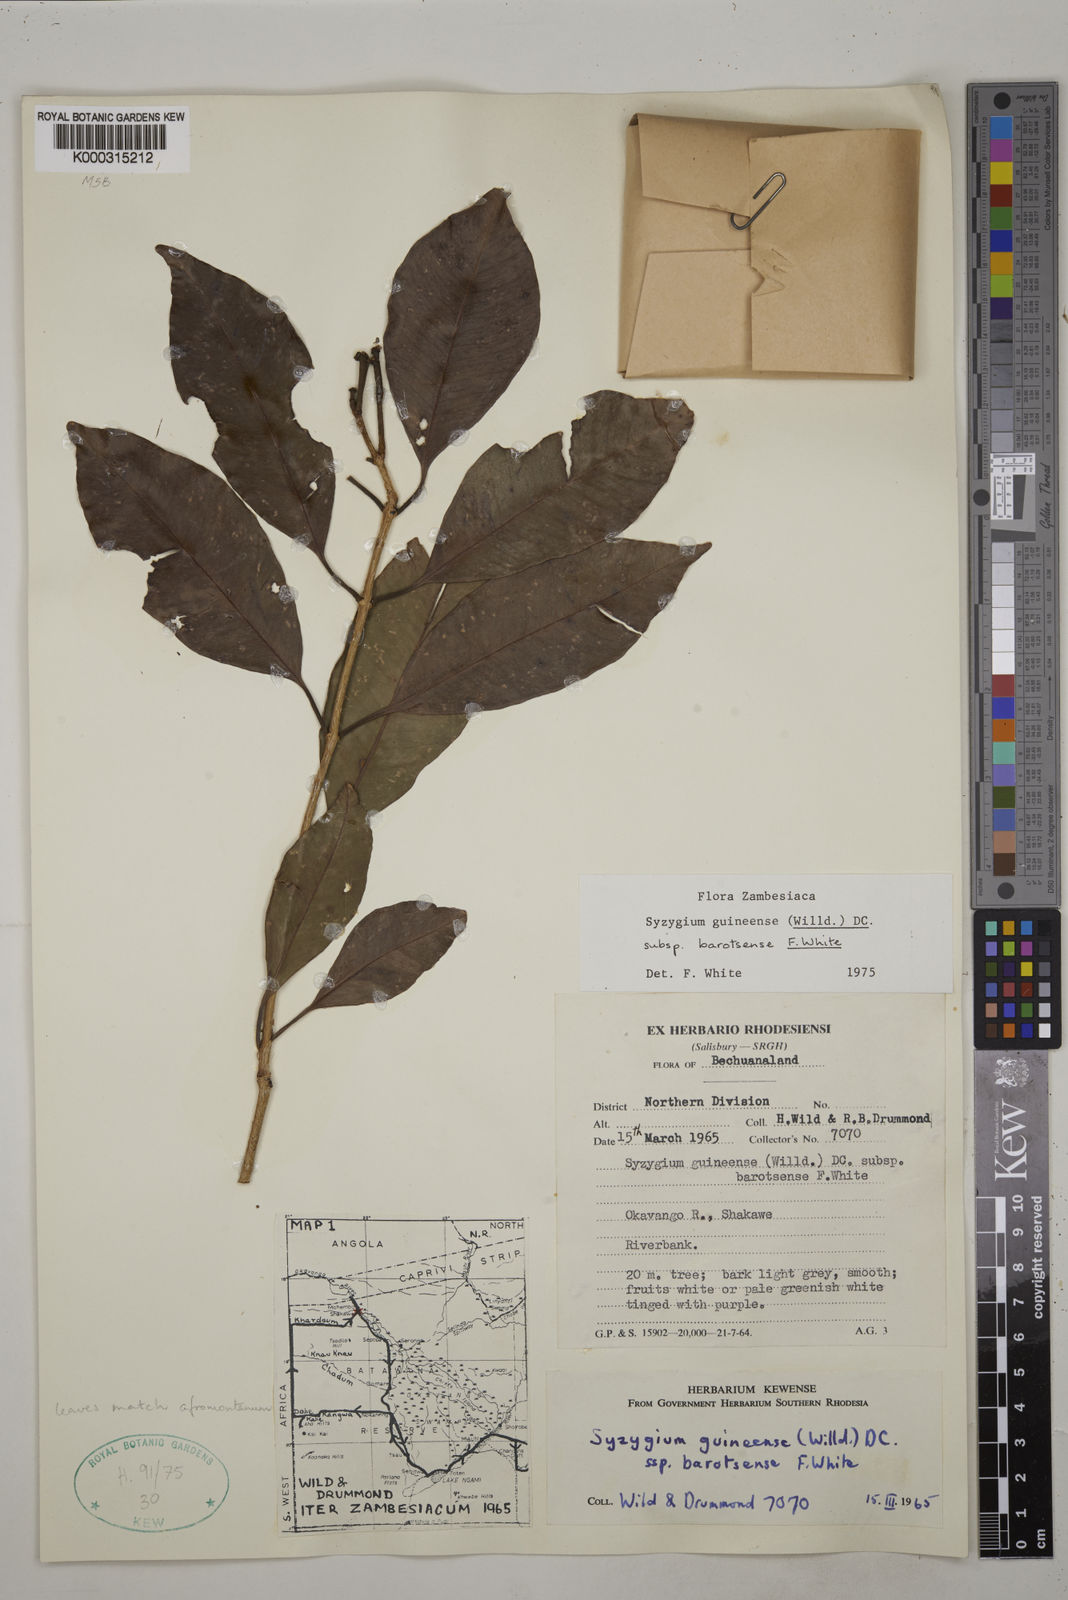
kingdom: Plantae
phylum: Tracheophyta
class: Magnoliopsida
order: Myrtales
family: Myrtaceae
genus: Syzygium
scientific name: Syzygium guineense
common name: Water-pear
